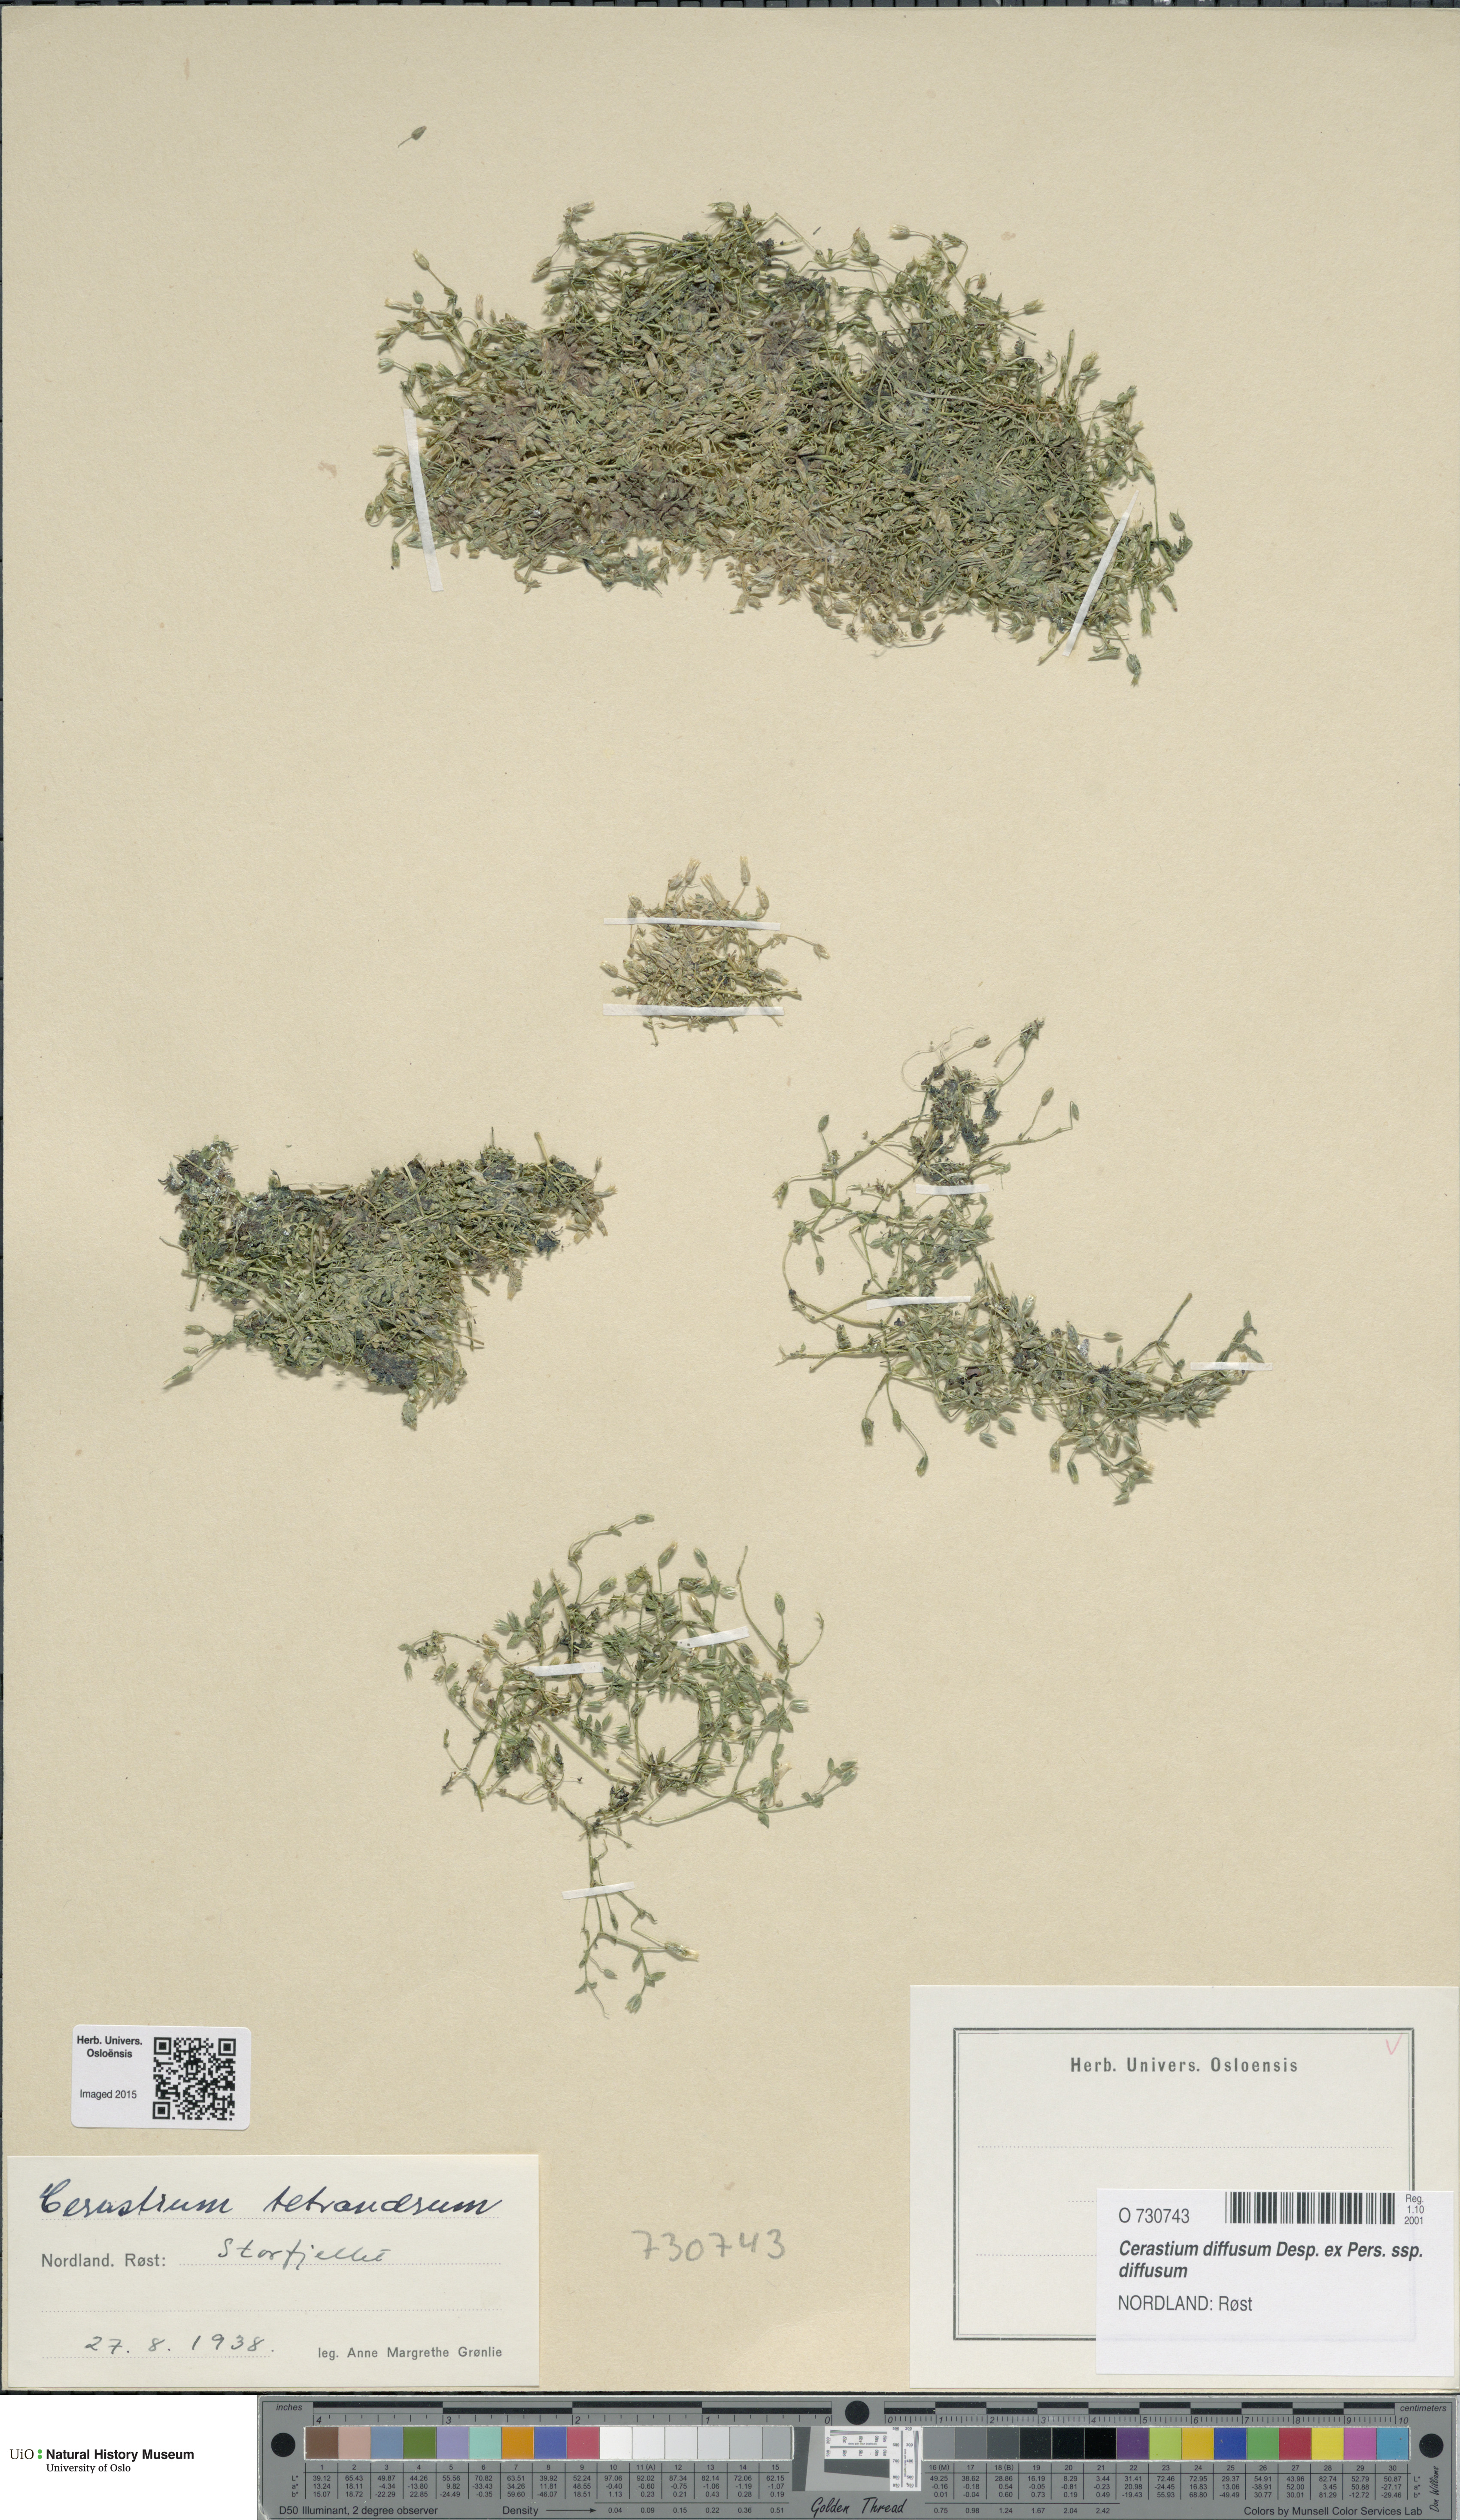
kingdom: Plantae
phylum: Tracheophyta
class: Magnoliopsida
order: Caryophyllales
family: Caryophyllaceae
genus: Cerastium
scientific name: Cerastium diffusum
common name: Fourstamen chickweed
